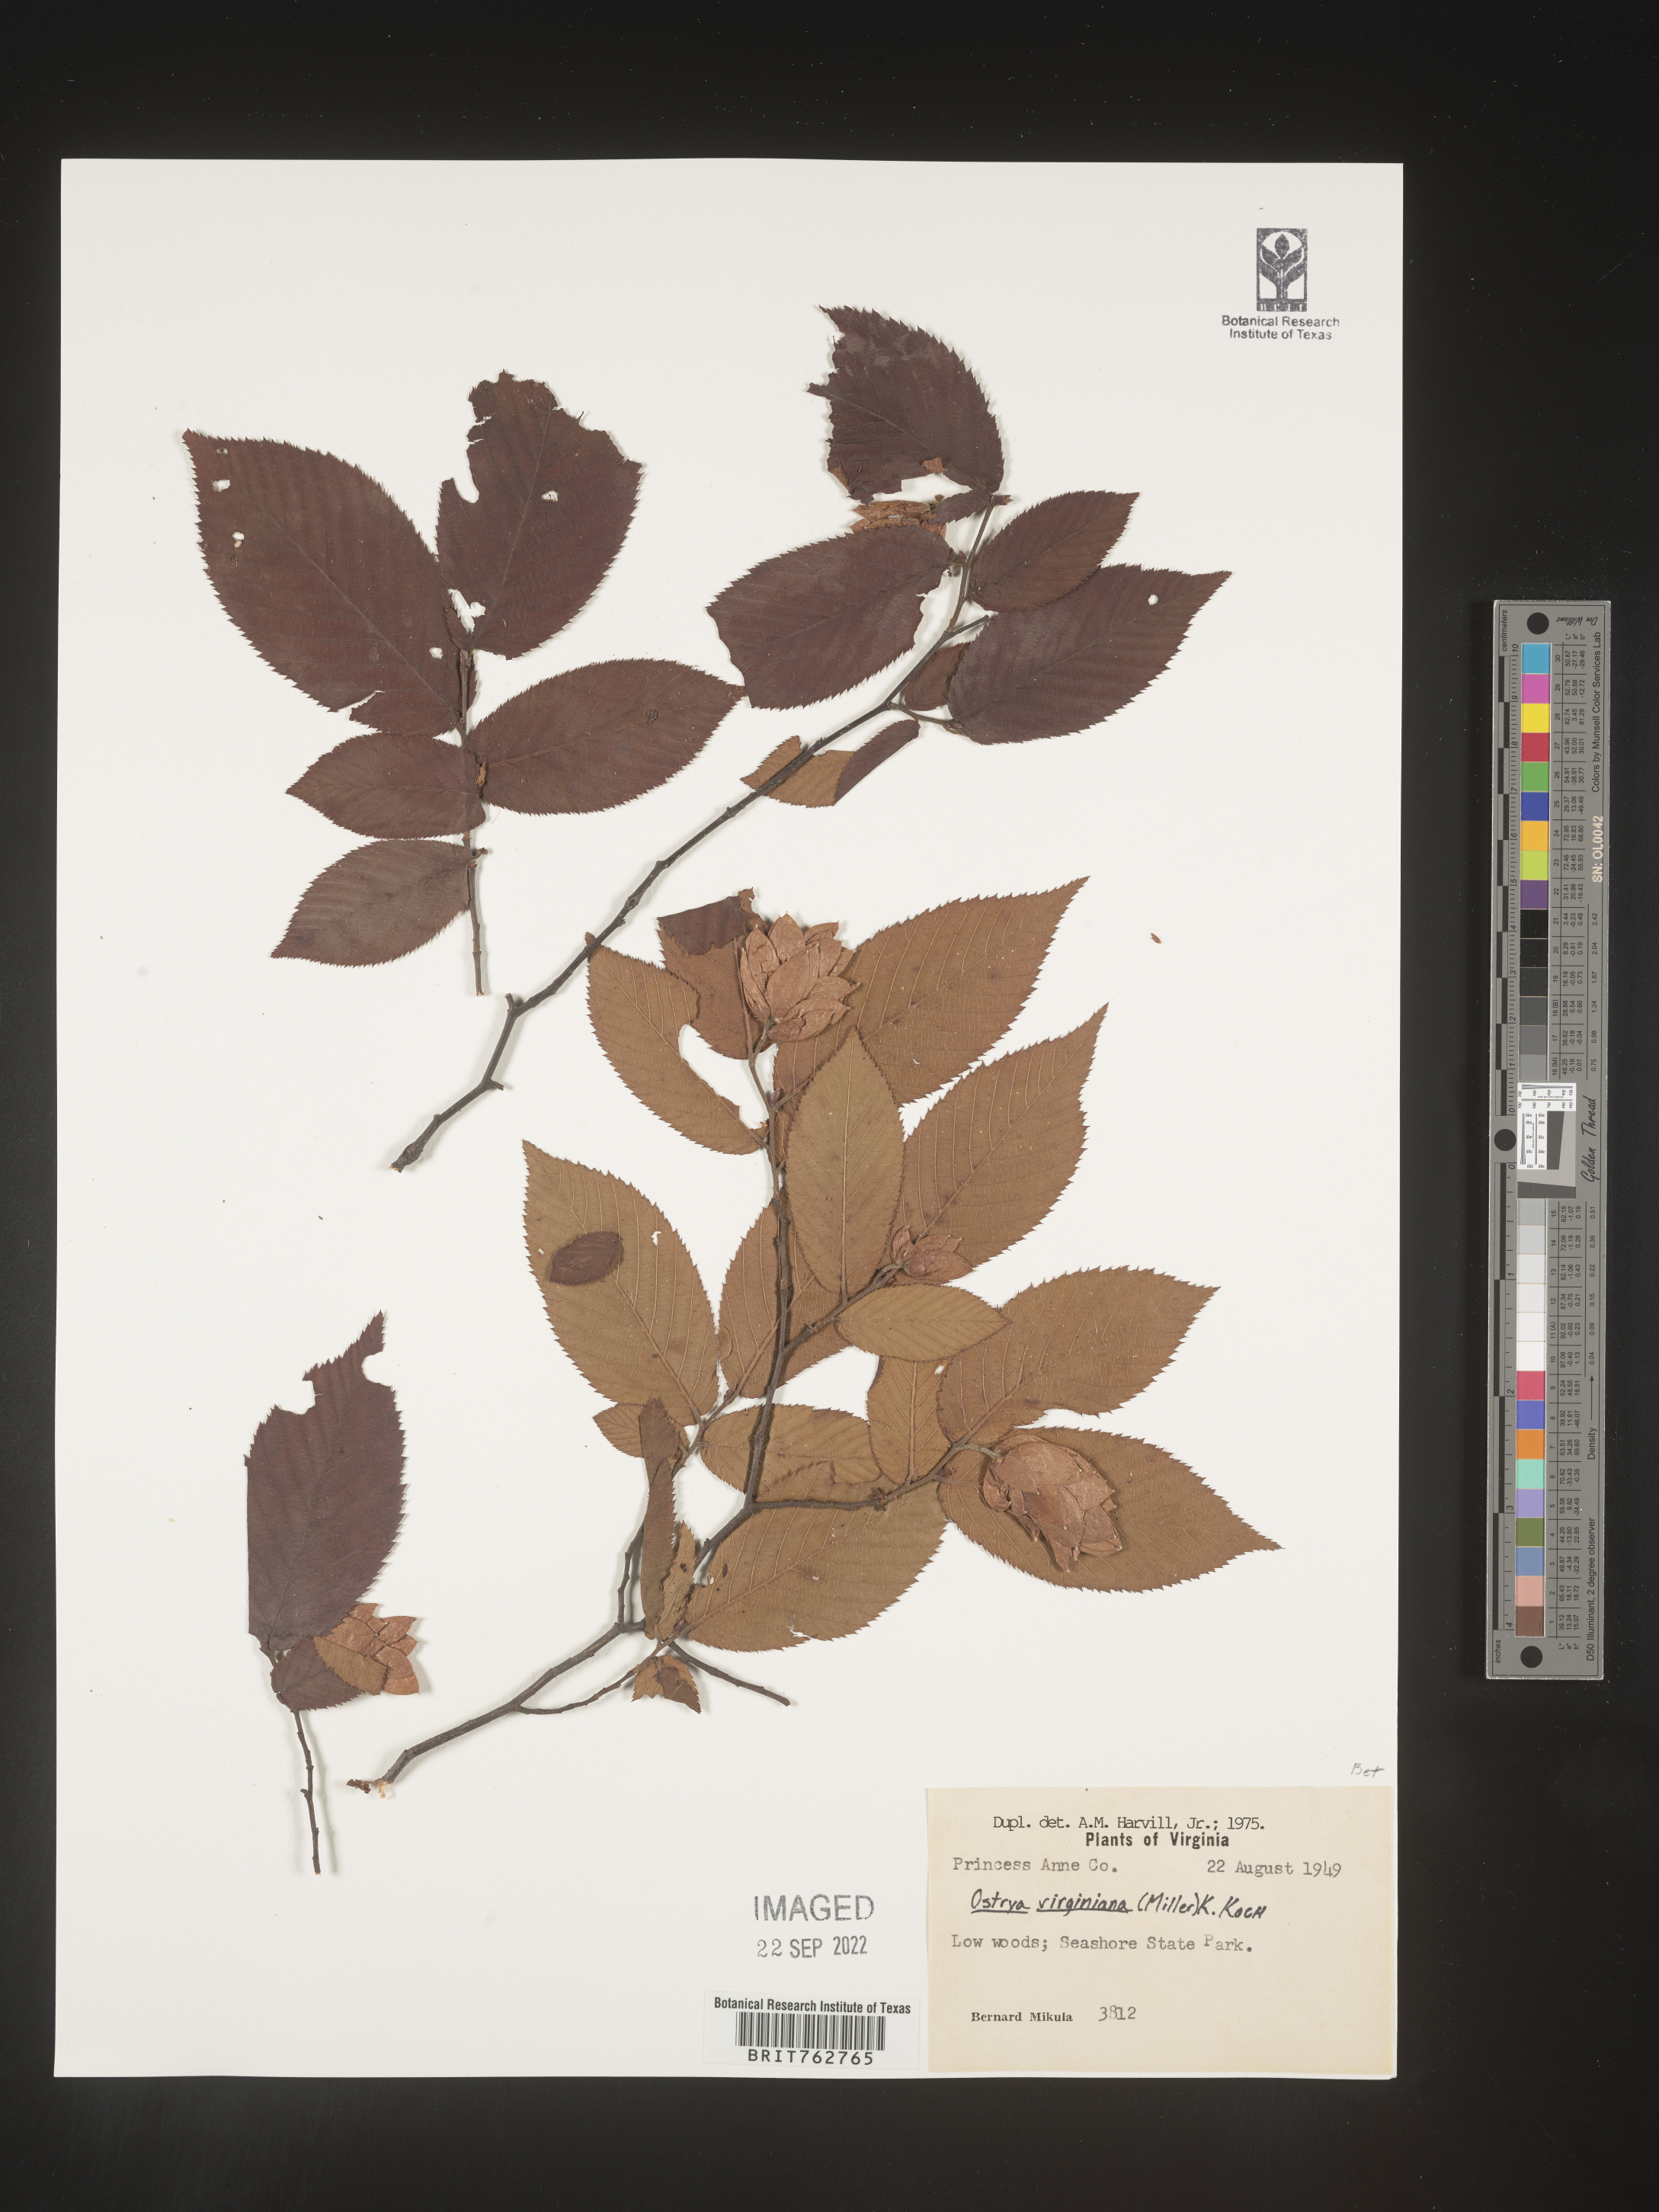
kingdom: Plantae
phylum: Tracheophyta
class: Magnoliopsida
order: Fagales
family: Betulaceae
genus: Ostrya
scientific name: Ostrya virginiana
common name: Ironwood
